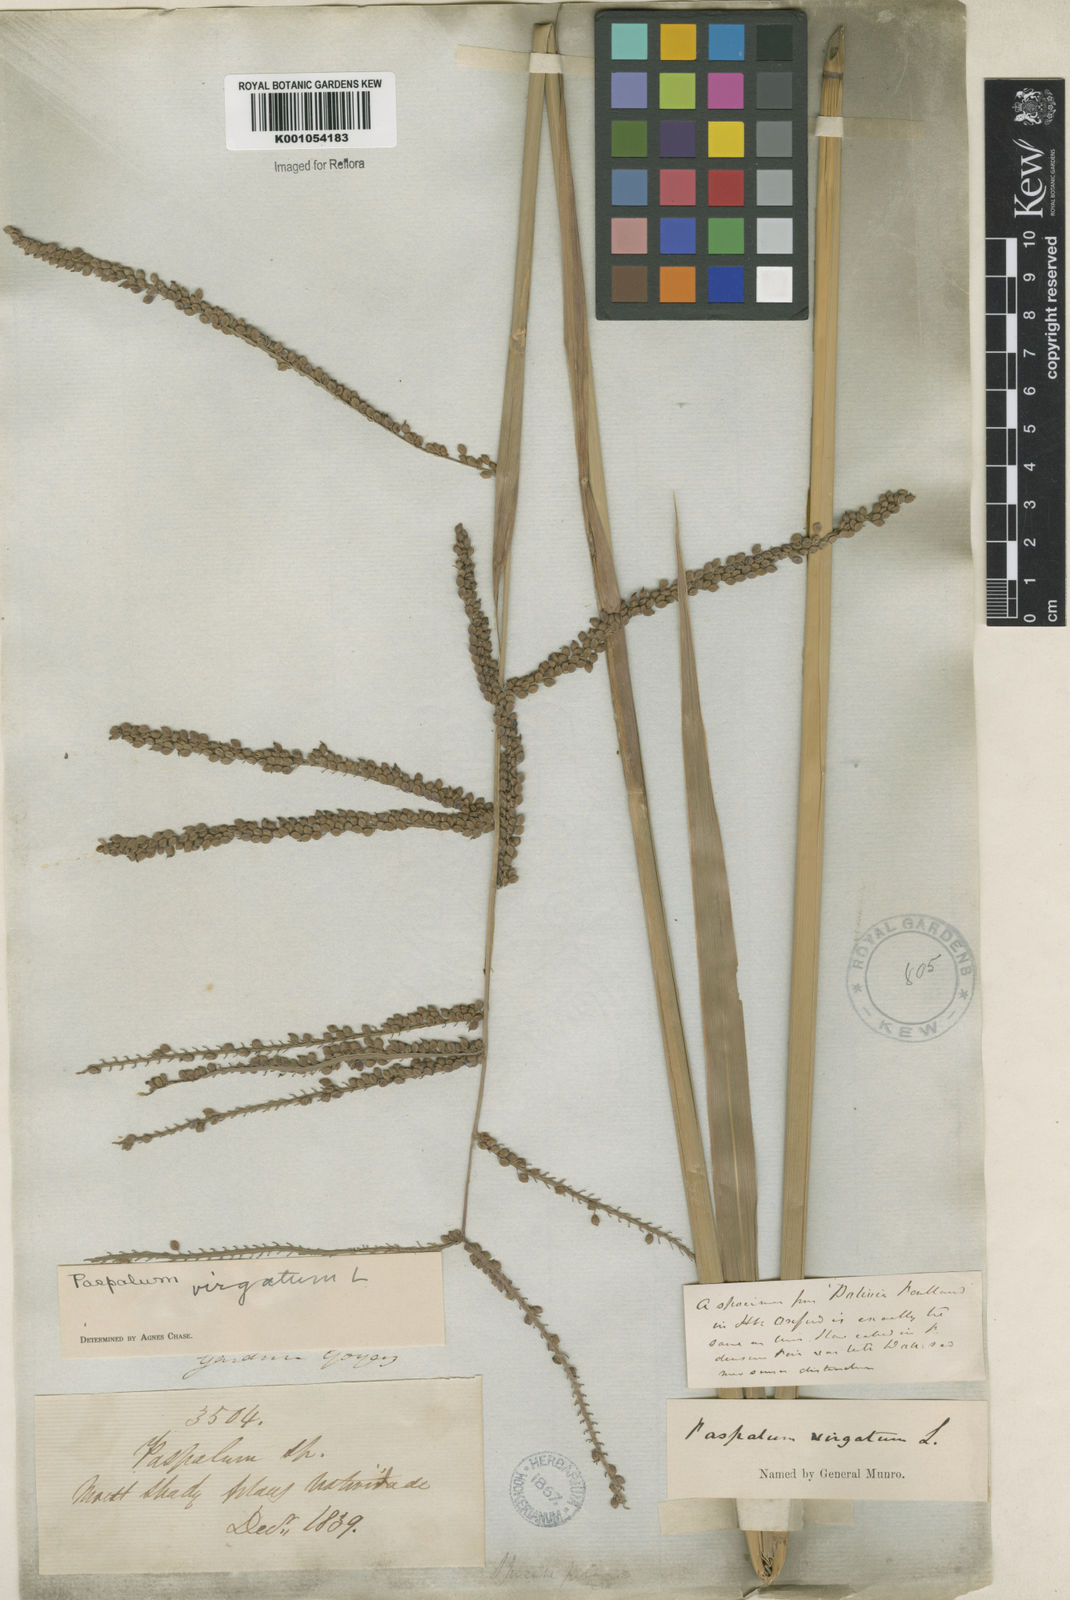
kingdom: Plantae
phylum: Tracheophyta
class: Liliopsida
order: Poales
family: Poaceae
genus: Paspalum
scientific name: Paspalum virgatum
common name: Talquezal
